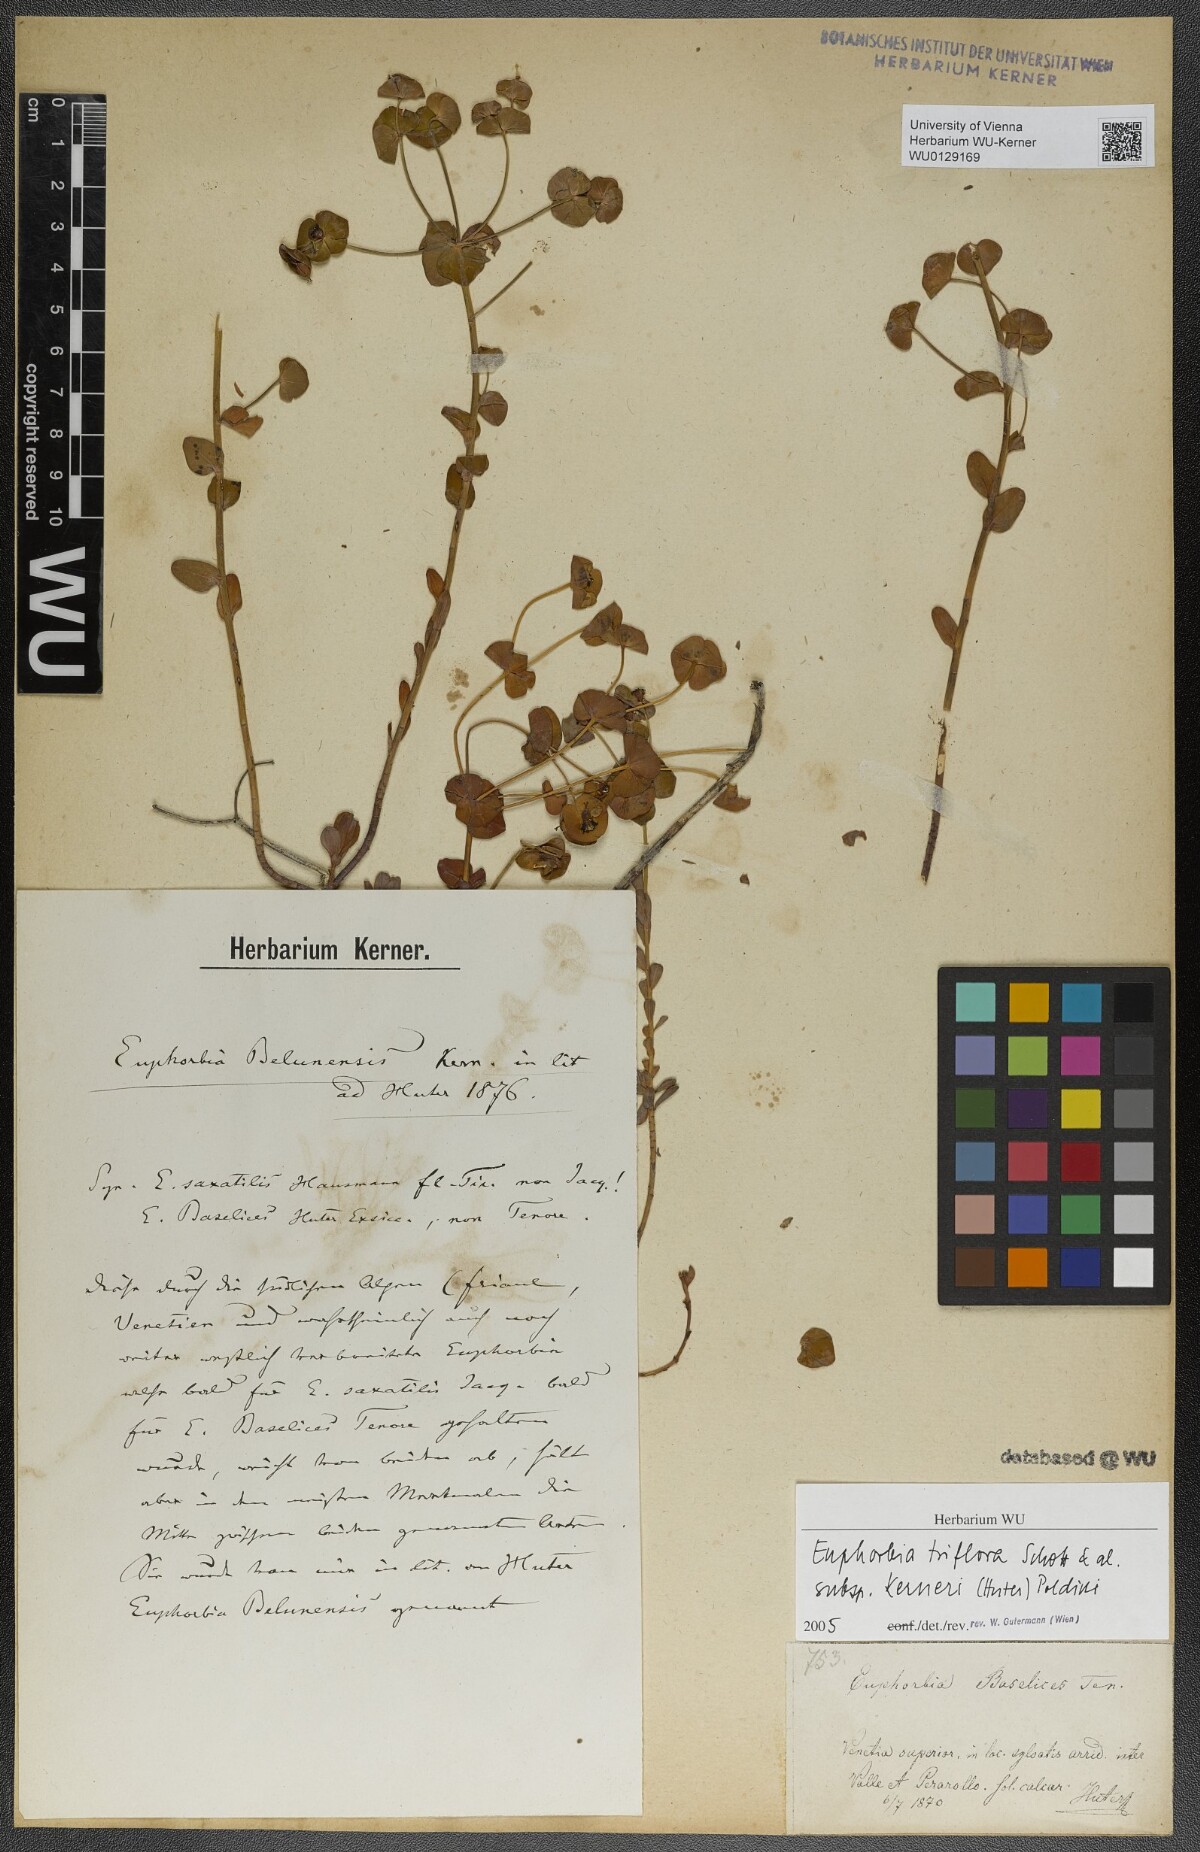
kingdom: Plantae
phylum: Tracheophyta
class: Magnoliopsida
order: Malpighiales
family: Euphorbiaceae
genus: Euphorbia
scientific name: Euphorbia
